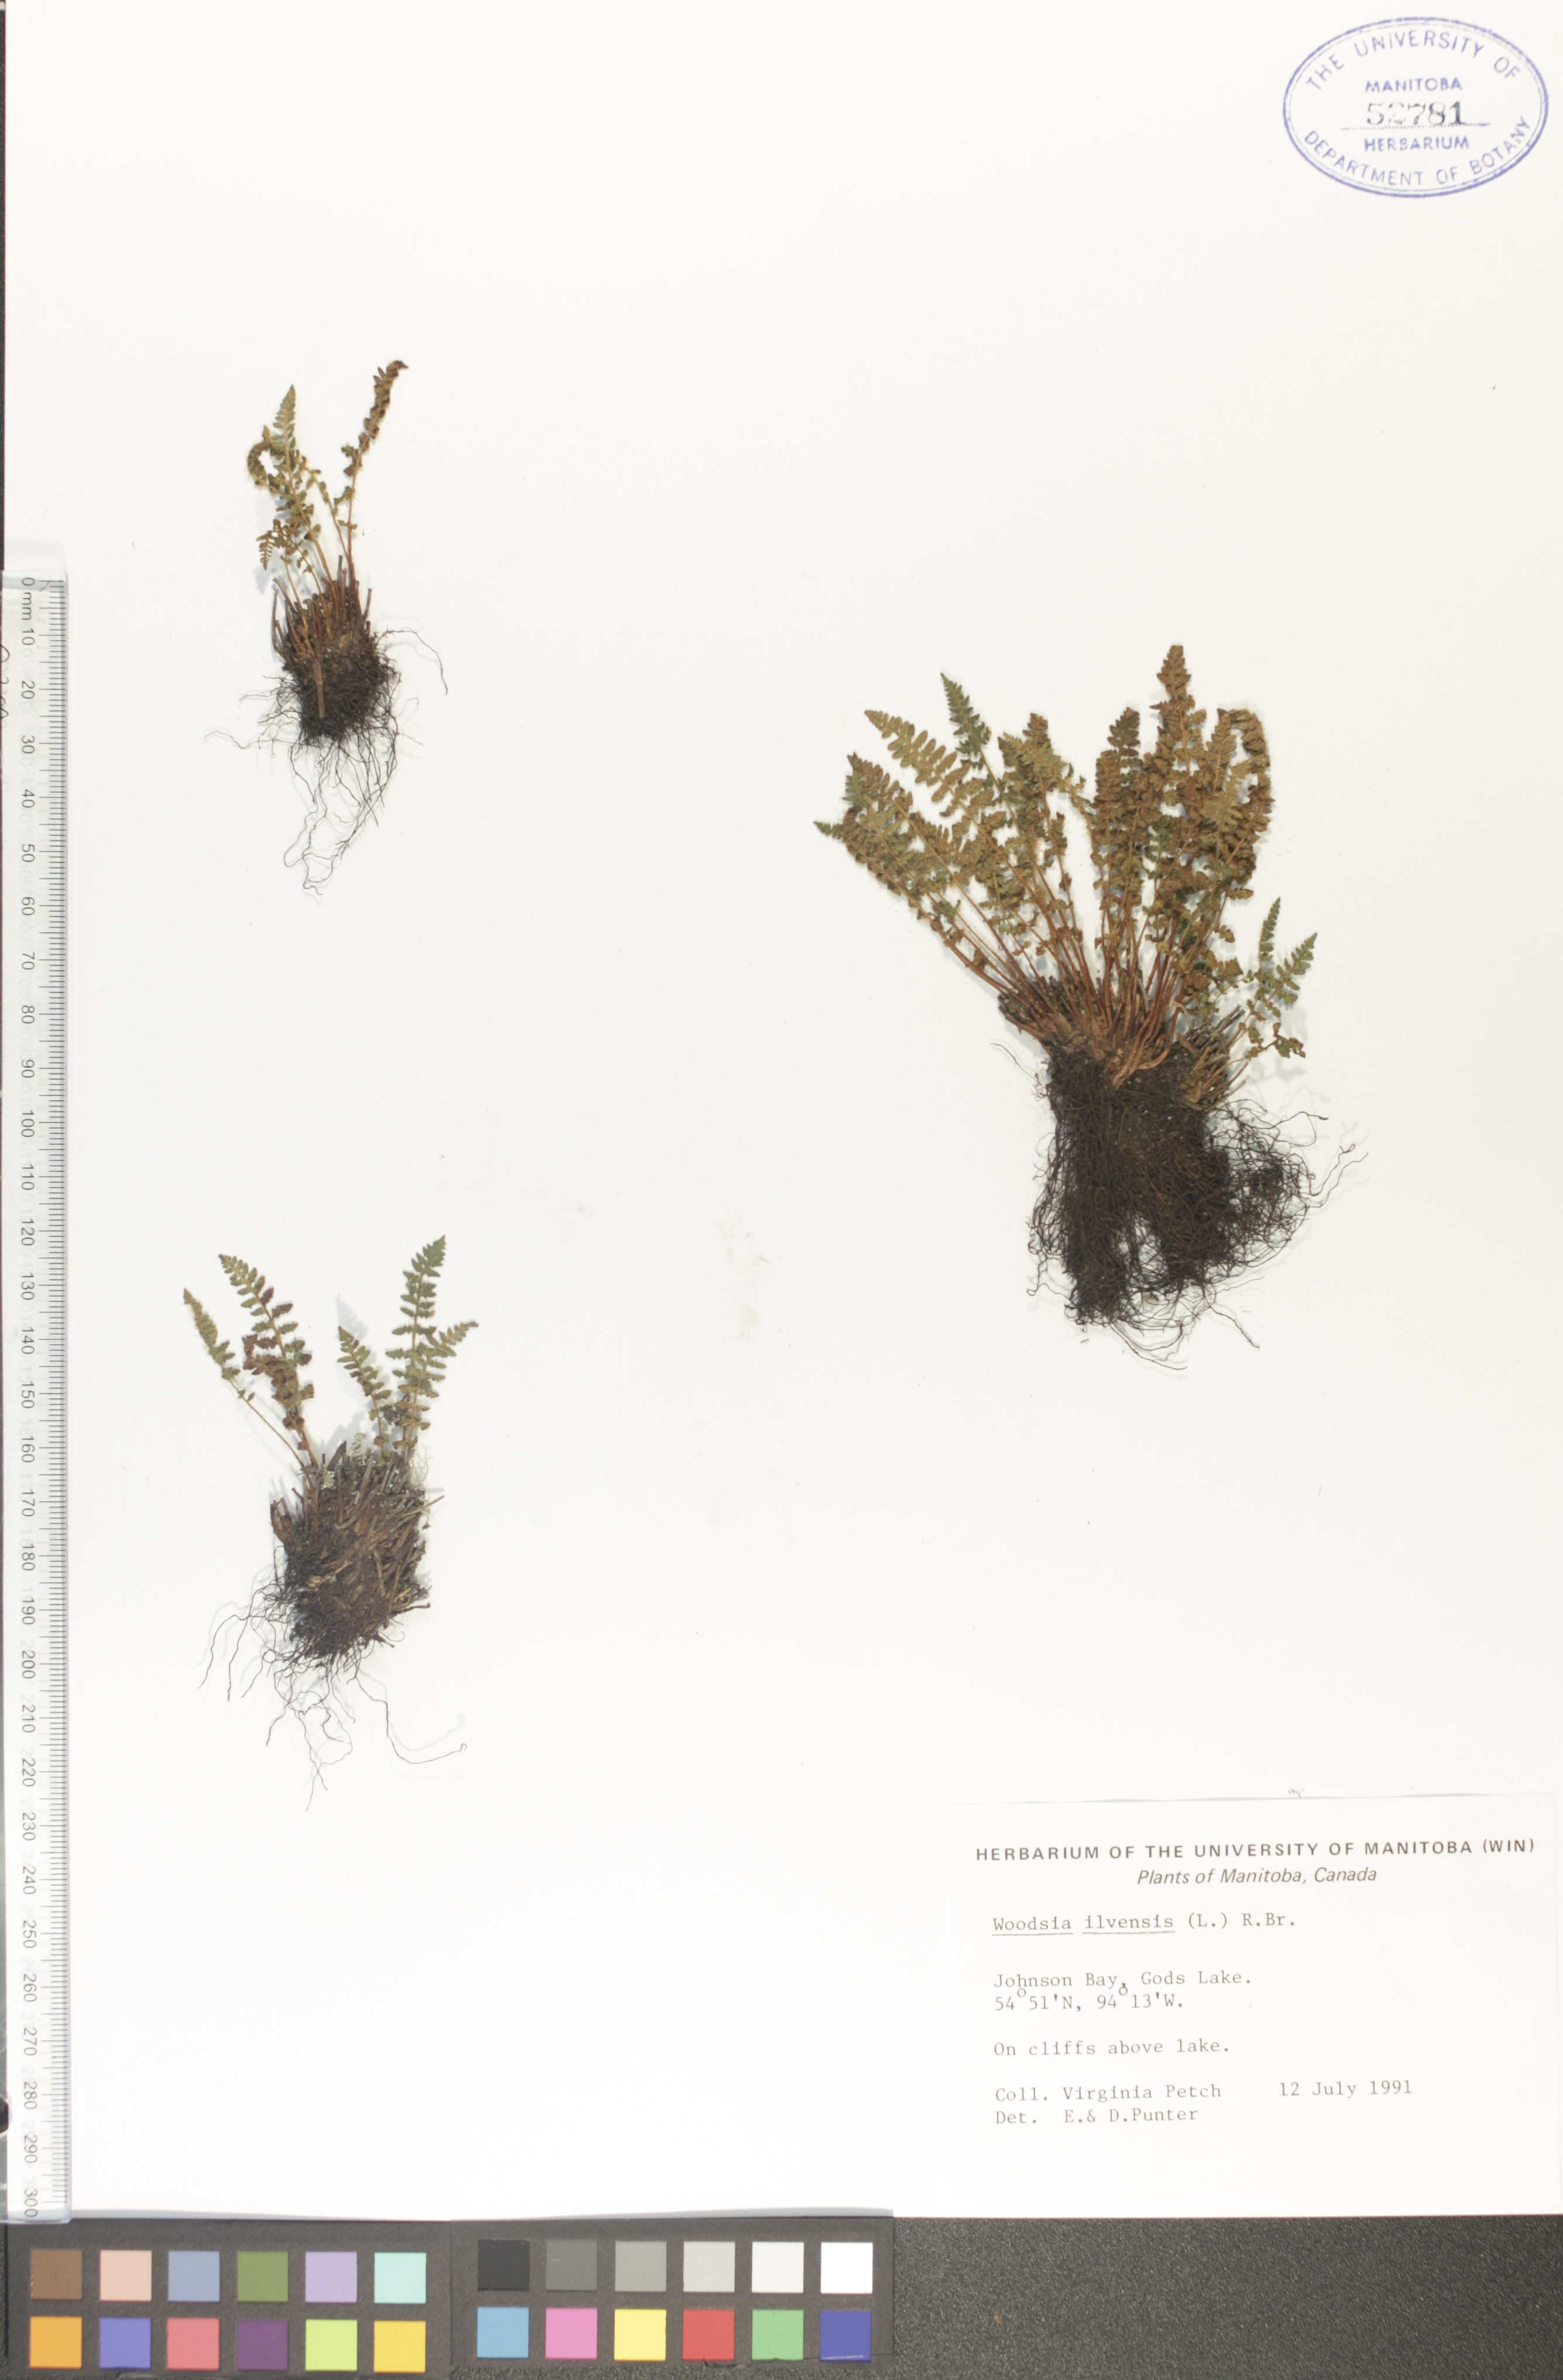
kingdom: Plantae
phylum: Tracheophyta
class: Polypodiopsida
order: Polypodiales
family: Woodsiaceae
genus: Woodsia
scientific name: Woodsia ilvensis
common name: Fragrant woodsia
